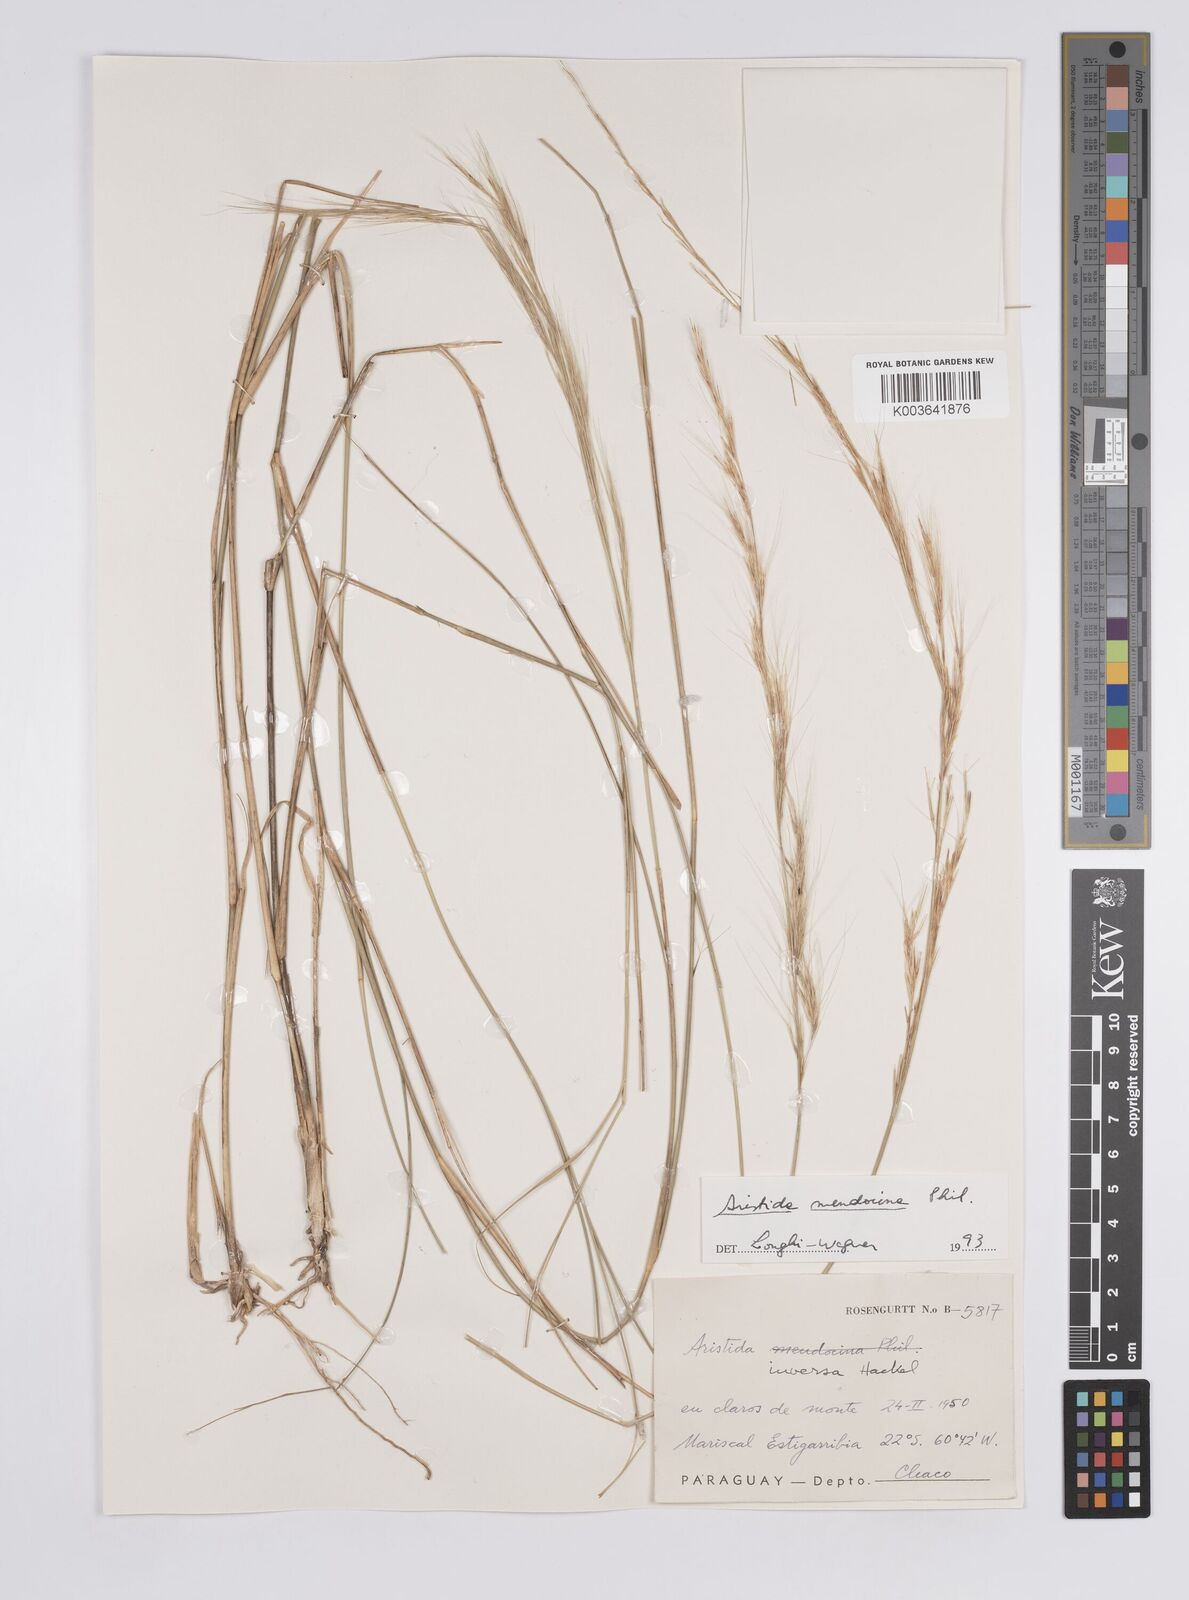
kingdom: Plantae
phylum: Tracheophyta
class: Liliopsida
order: Poales
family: Poaceae
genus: Aristida
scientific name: Aristida mendocina
